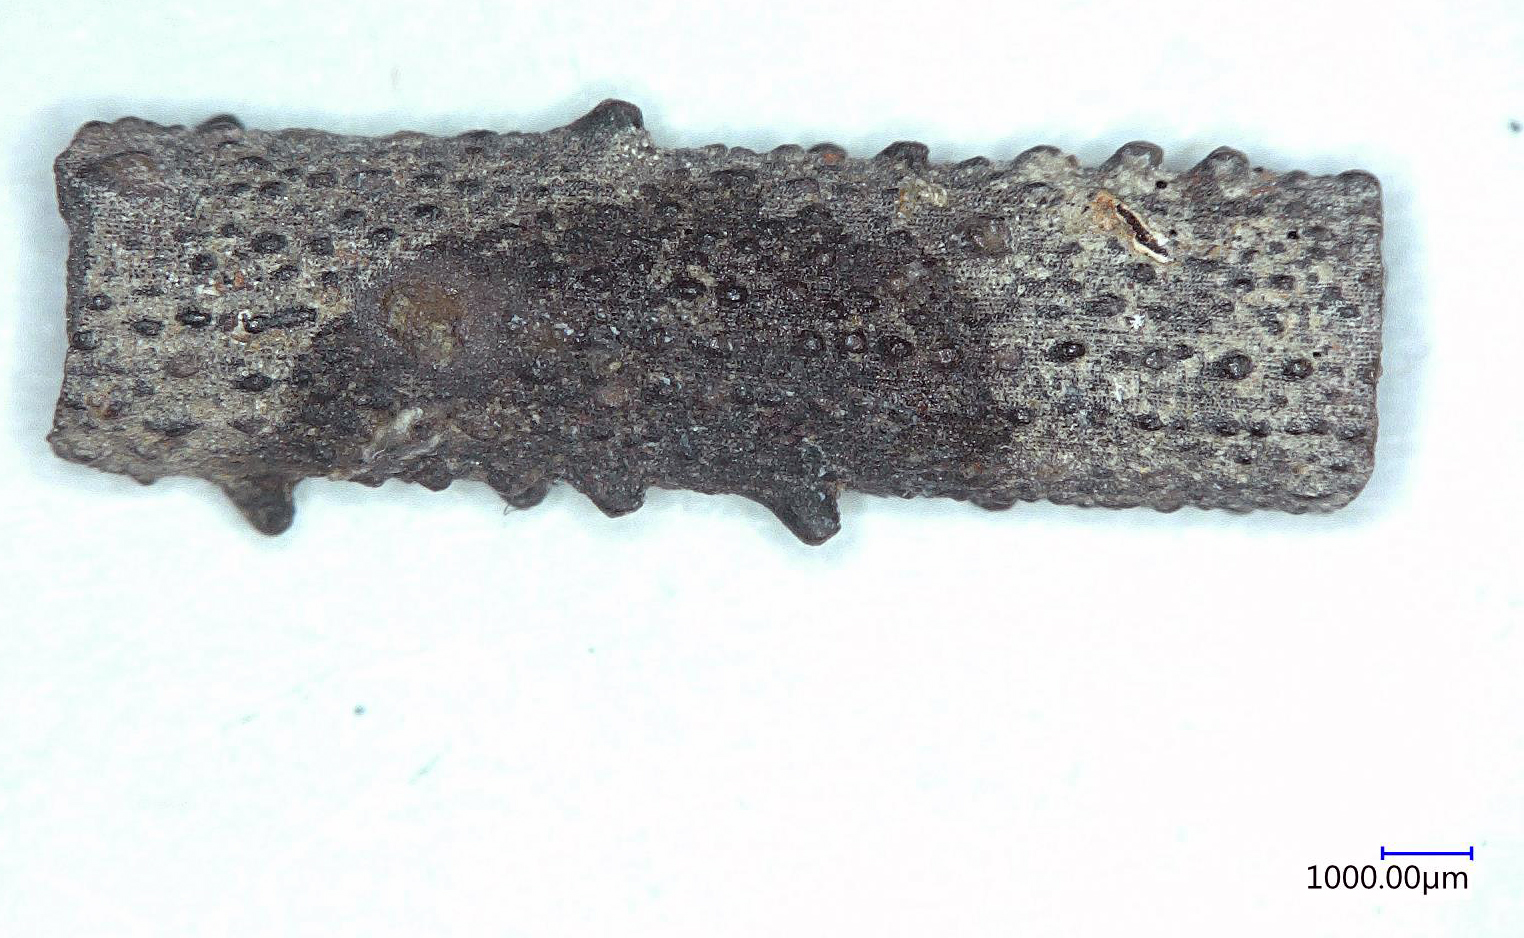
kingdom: Animalia
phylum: Echinodermata
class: Echinoidea
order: Cidaroida
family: Rhabdocidaridae
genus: Rhabdocidaris
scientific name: Rhabdocidaris ehmanni
